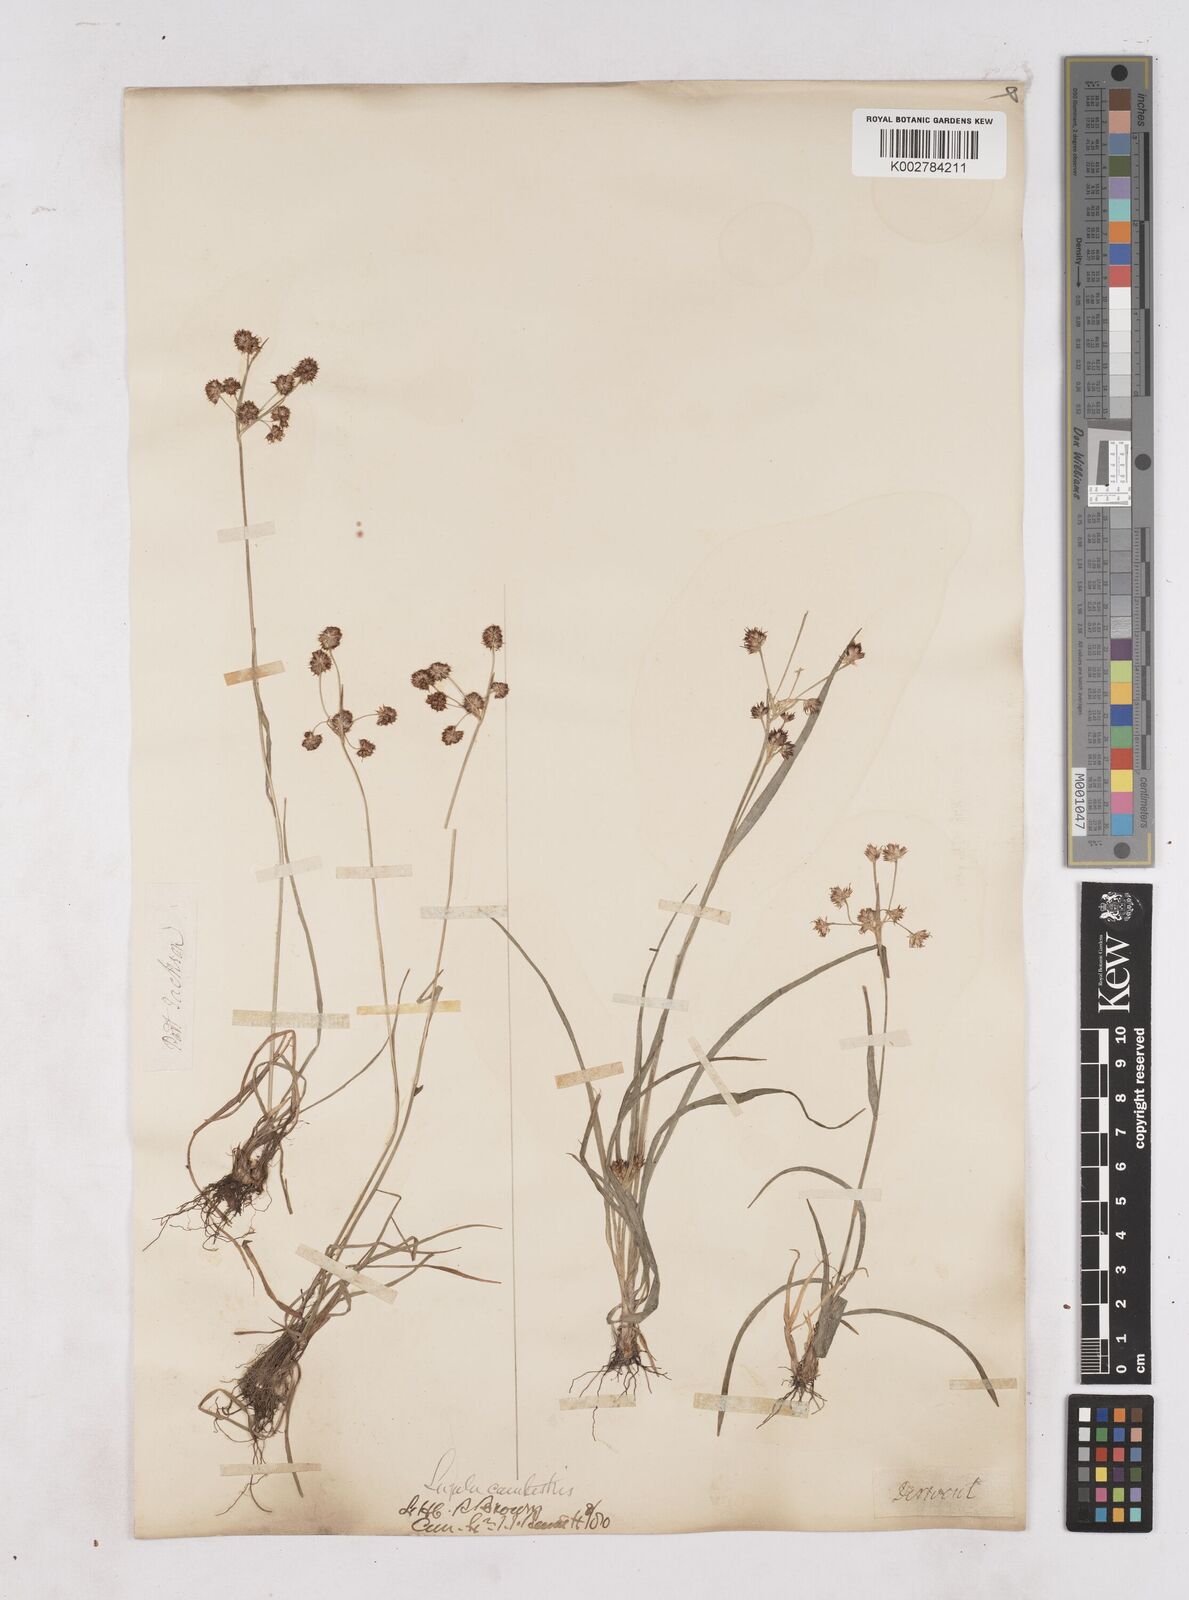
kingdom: Plantae
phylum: Tracheophyta
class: Liliopsida
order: Poales
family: Juncaceae
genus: Luzula
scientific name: Luzula campestris
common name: Field wood-rush
